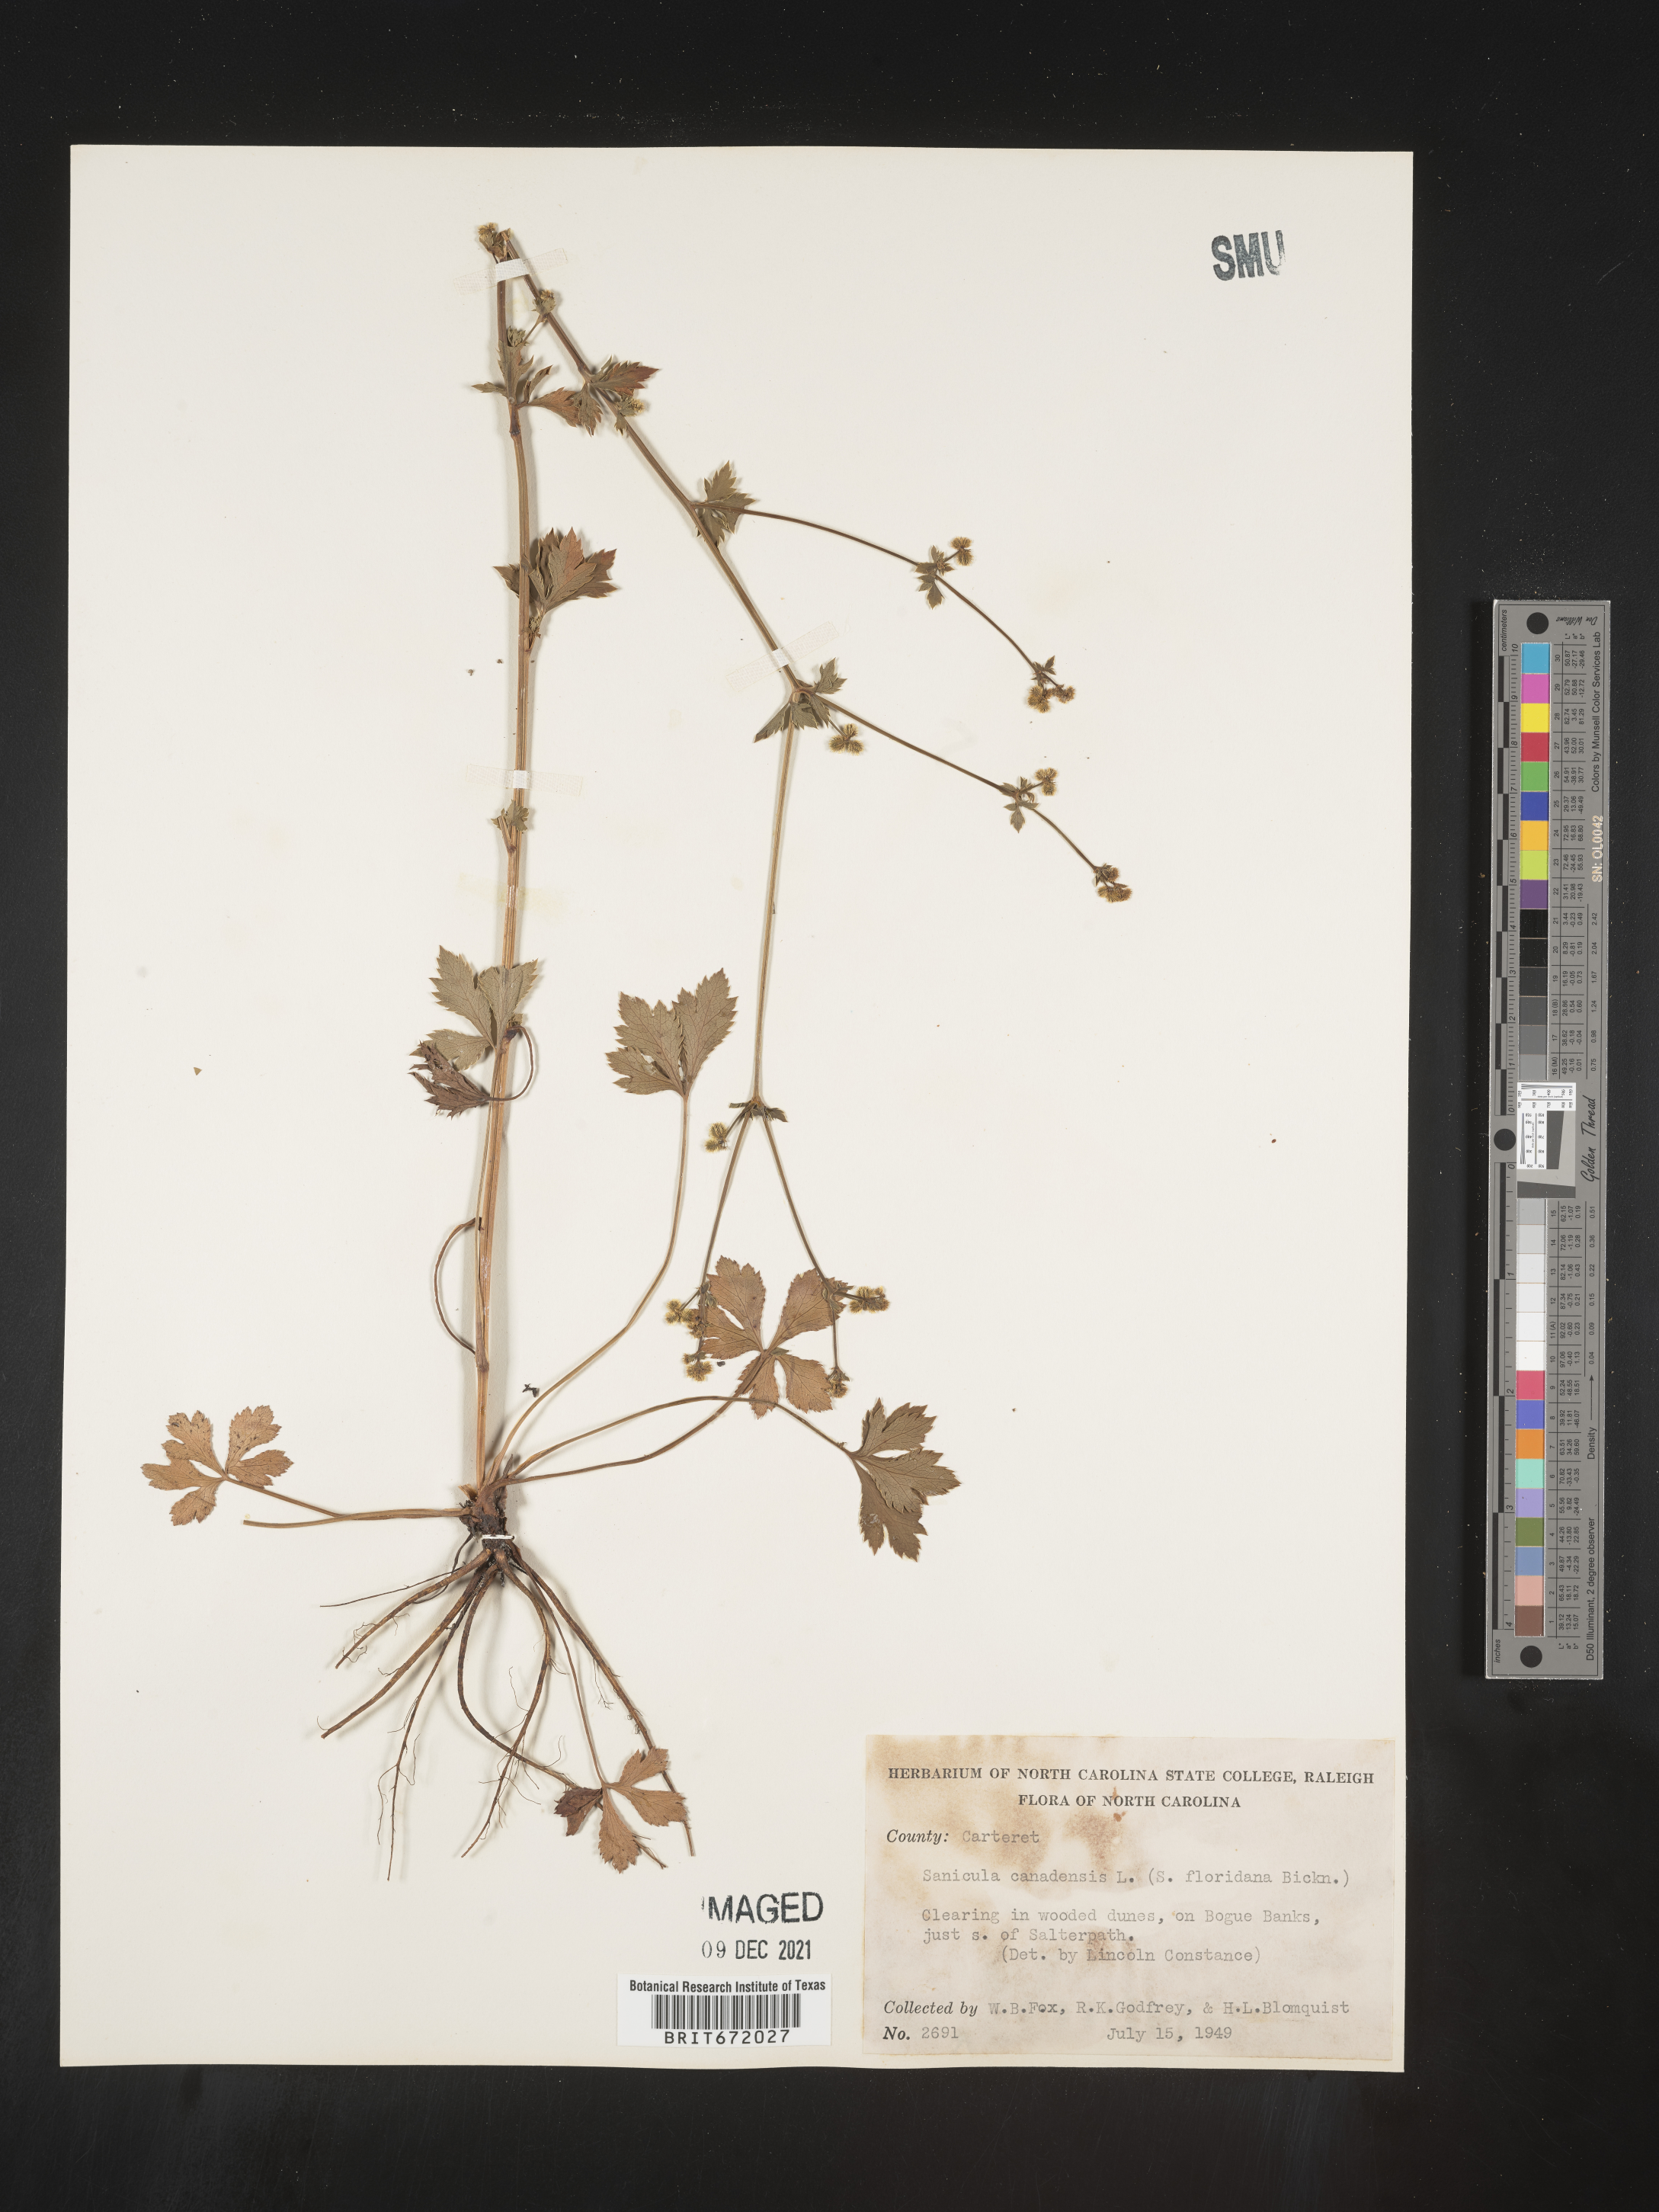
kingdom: Plantae
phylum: Tracheophyta
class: Magnoliopsida
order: Apiales
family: Apiaceae
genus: Sanicula
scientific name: Sanicula canadensis
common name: Canada sanicle
